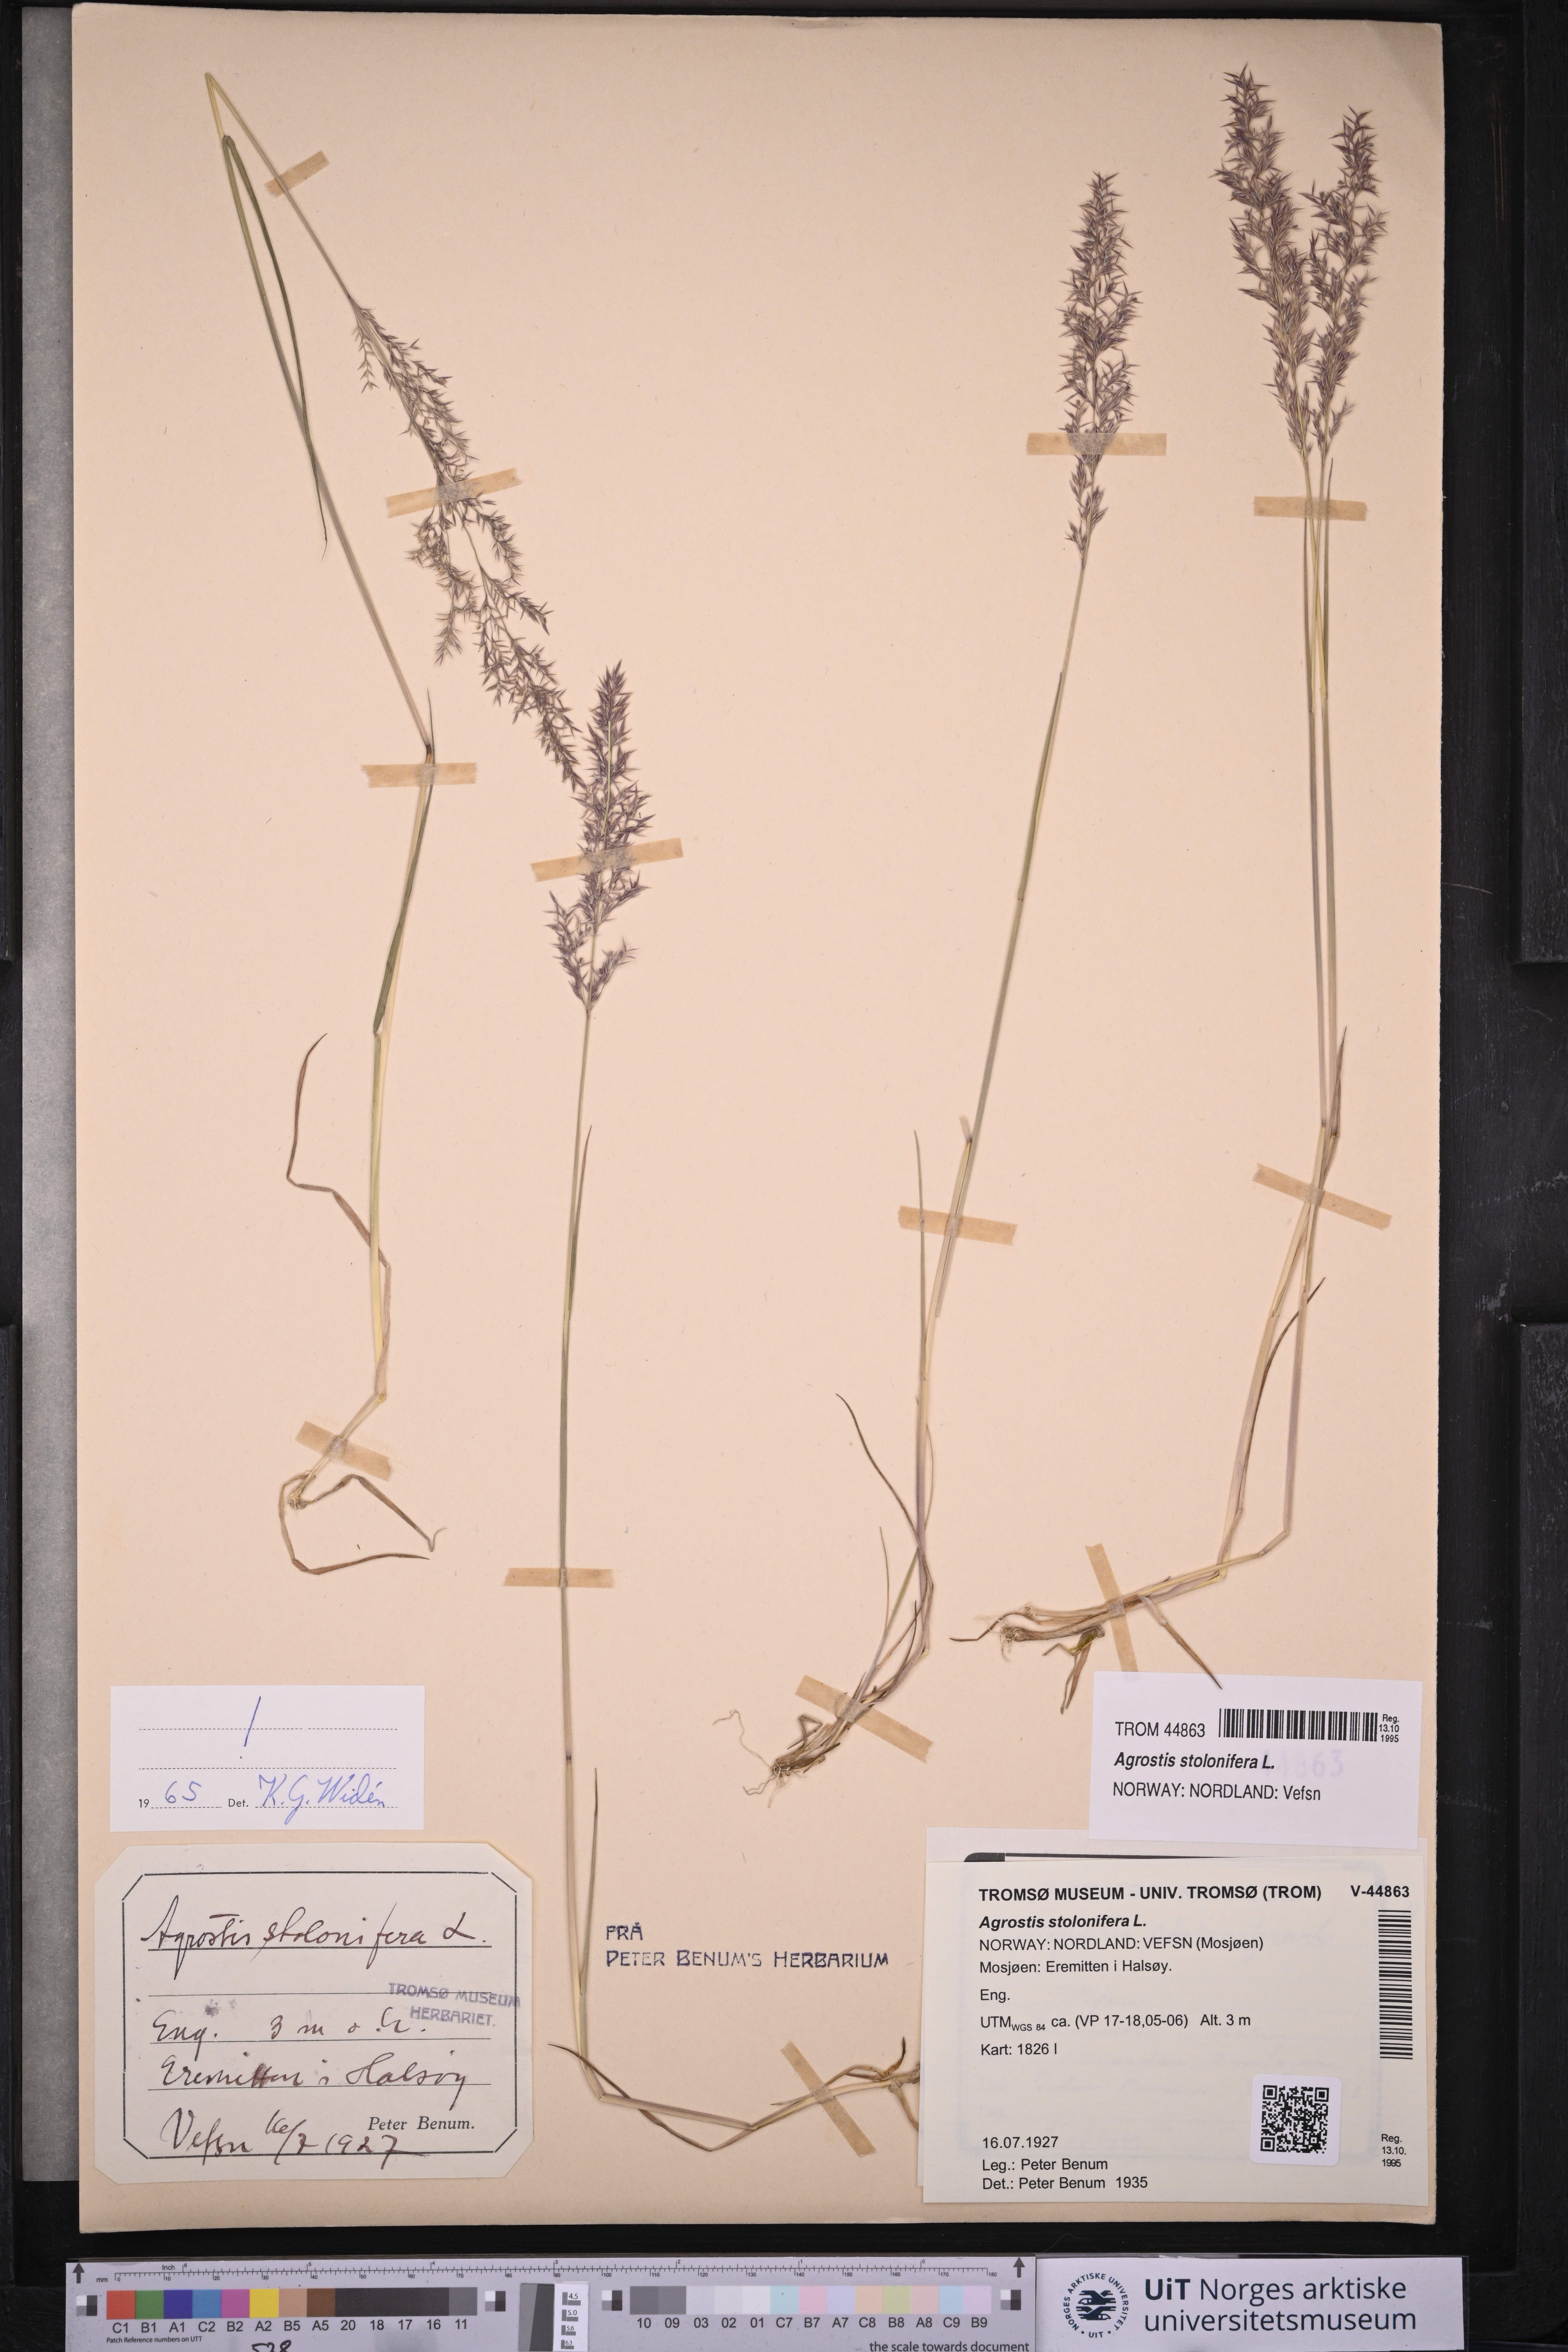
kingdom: Plantae
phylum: Tracheophyta
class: Liliopsida
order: Poales
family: Poaceae
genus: Agrostis
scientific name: Agrostis stolonifera
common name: Creeping bentgrass
